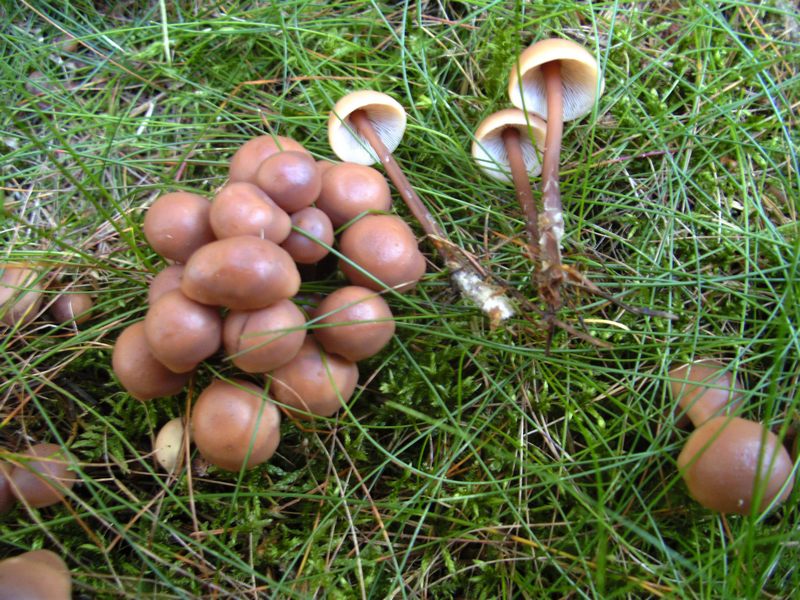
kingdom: Fungi
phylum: Basidiomycota
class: Agaricomycetes
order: Agaricales
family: Omphalotaceae
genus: Connopus
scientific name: Connopus acervatus
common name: tue-fladhat
